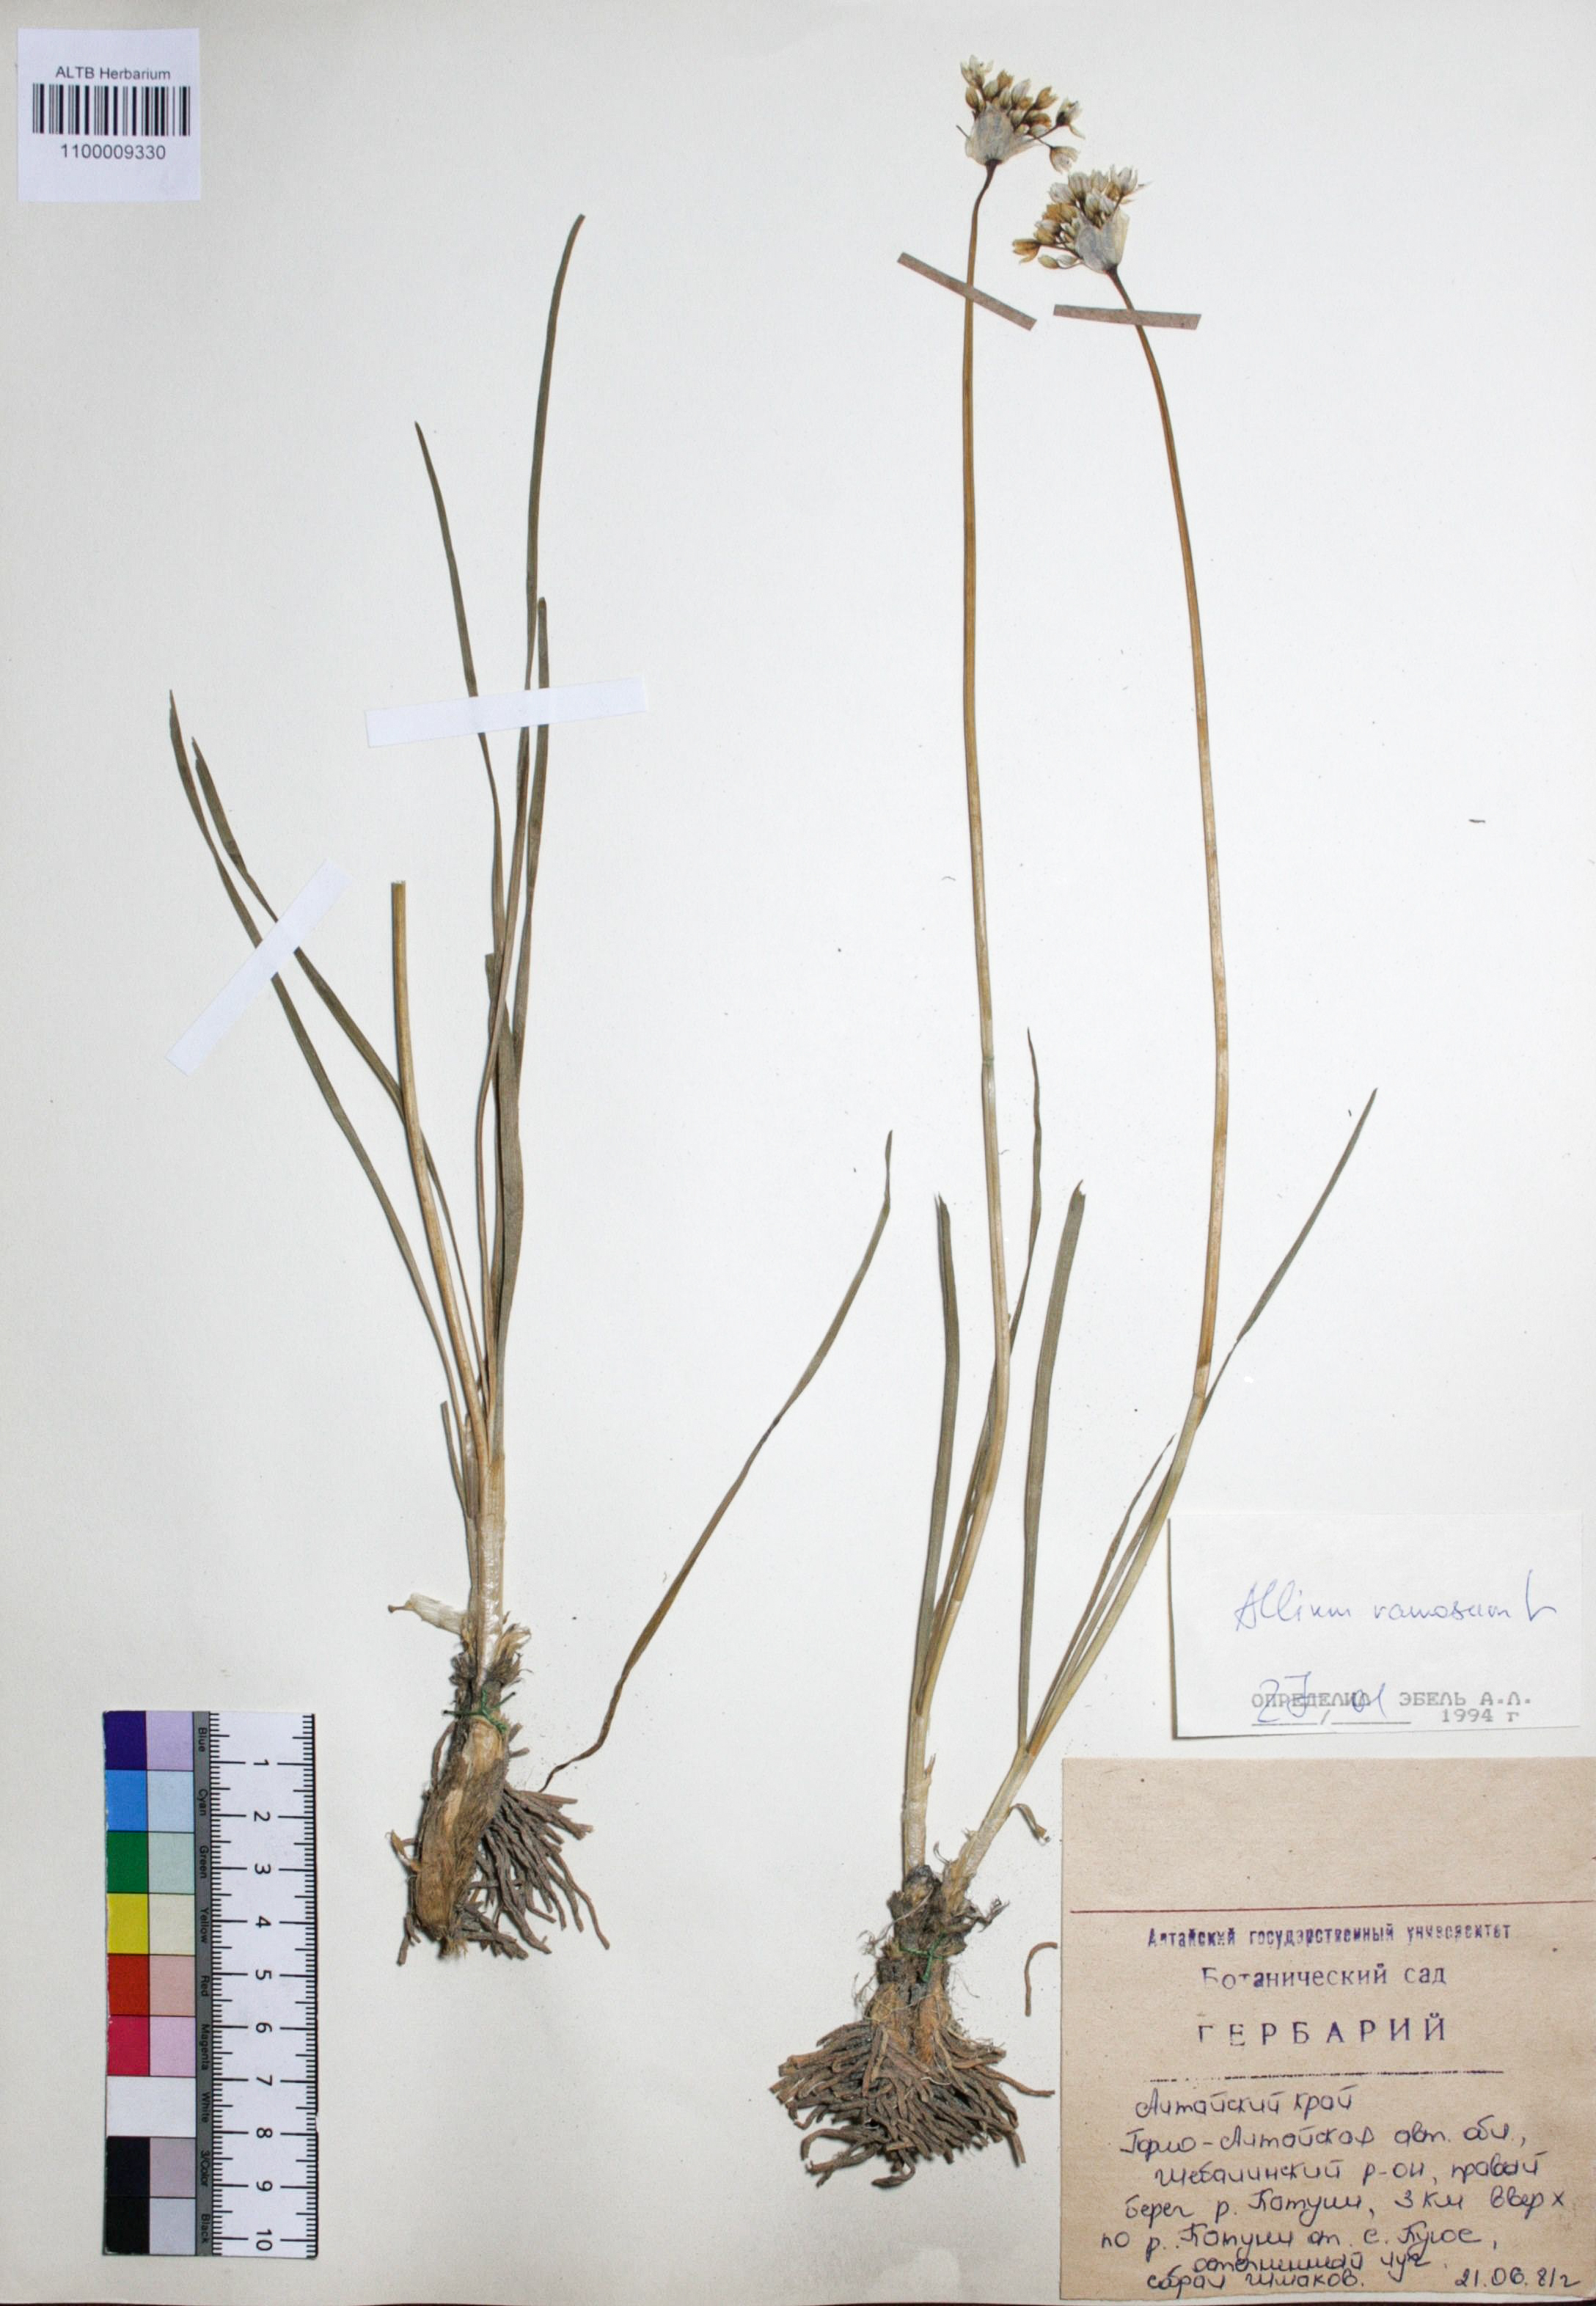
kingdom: Plantae
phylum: Tracheophyta
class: Liliopsida
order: Asparagales
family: Amaryllidaceae
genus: Allium
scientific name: Allium ramosum
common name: Fragrant garlic
